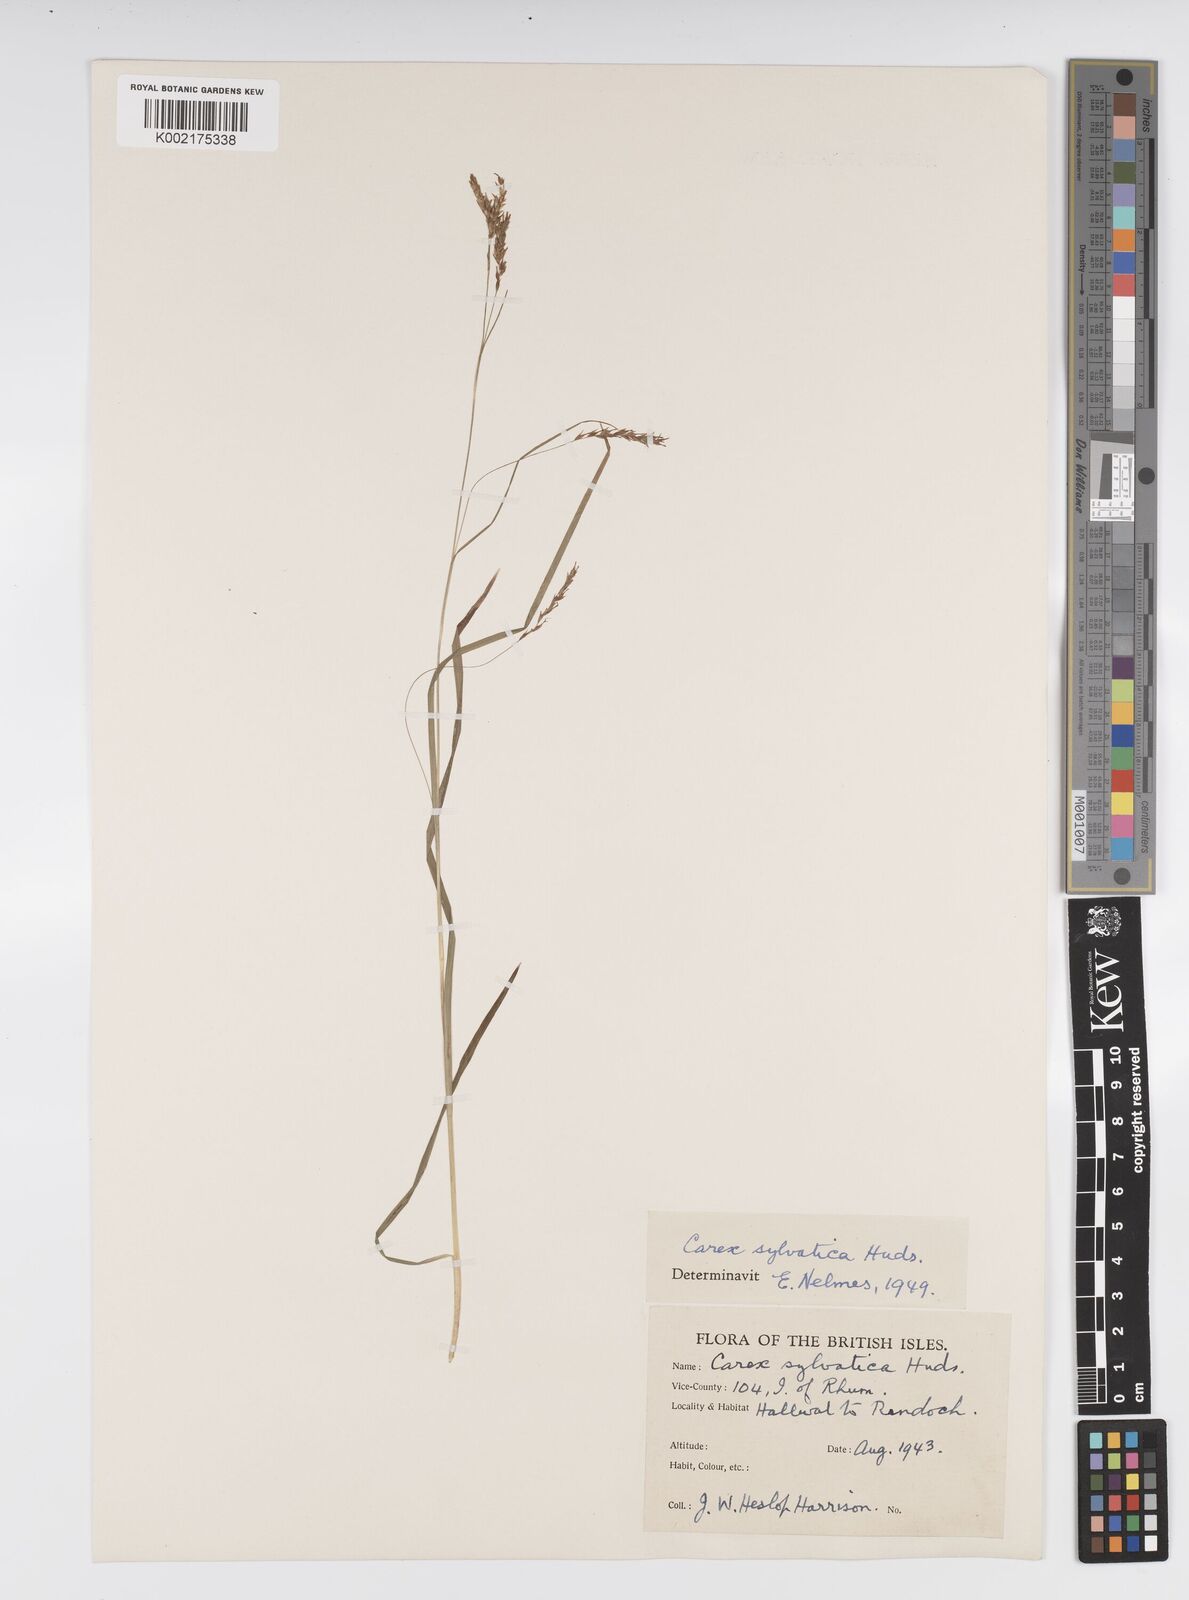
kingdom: Plantae
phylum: Tracheophyta
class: Liliopsida
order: Poales
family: Cyperaceae
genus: Carex
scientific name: Carex sylvatica
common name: Wood-sedge
